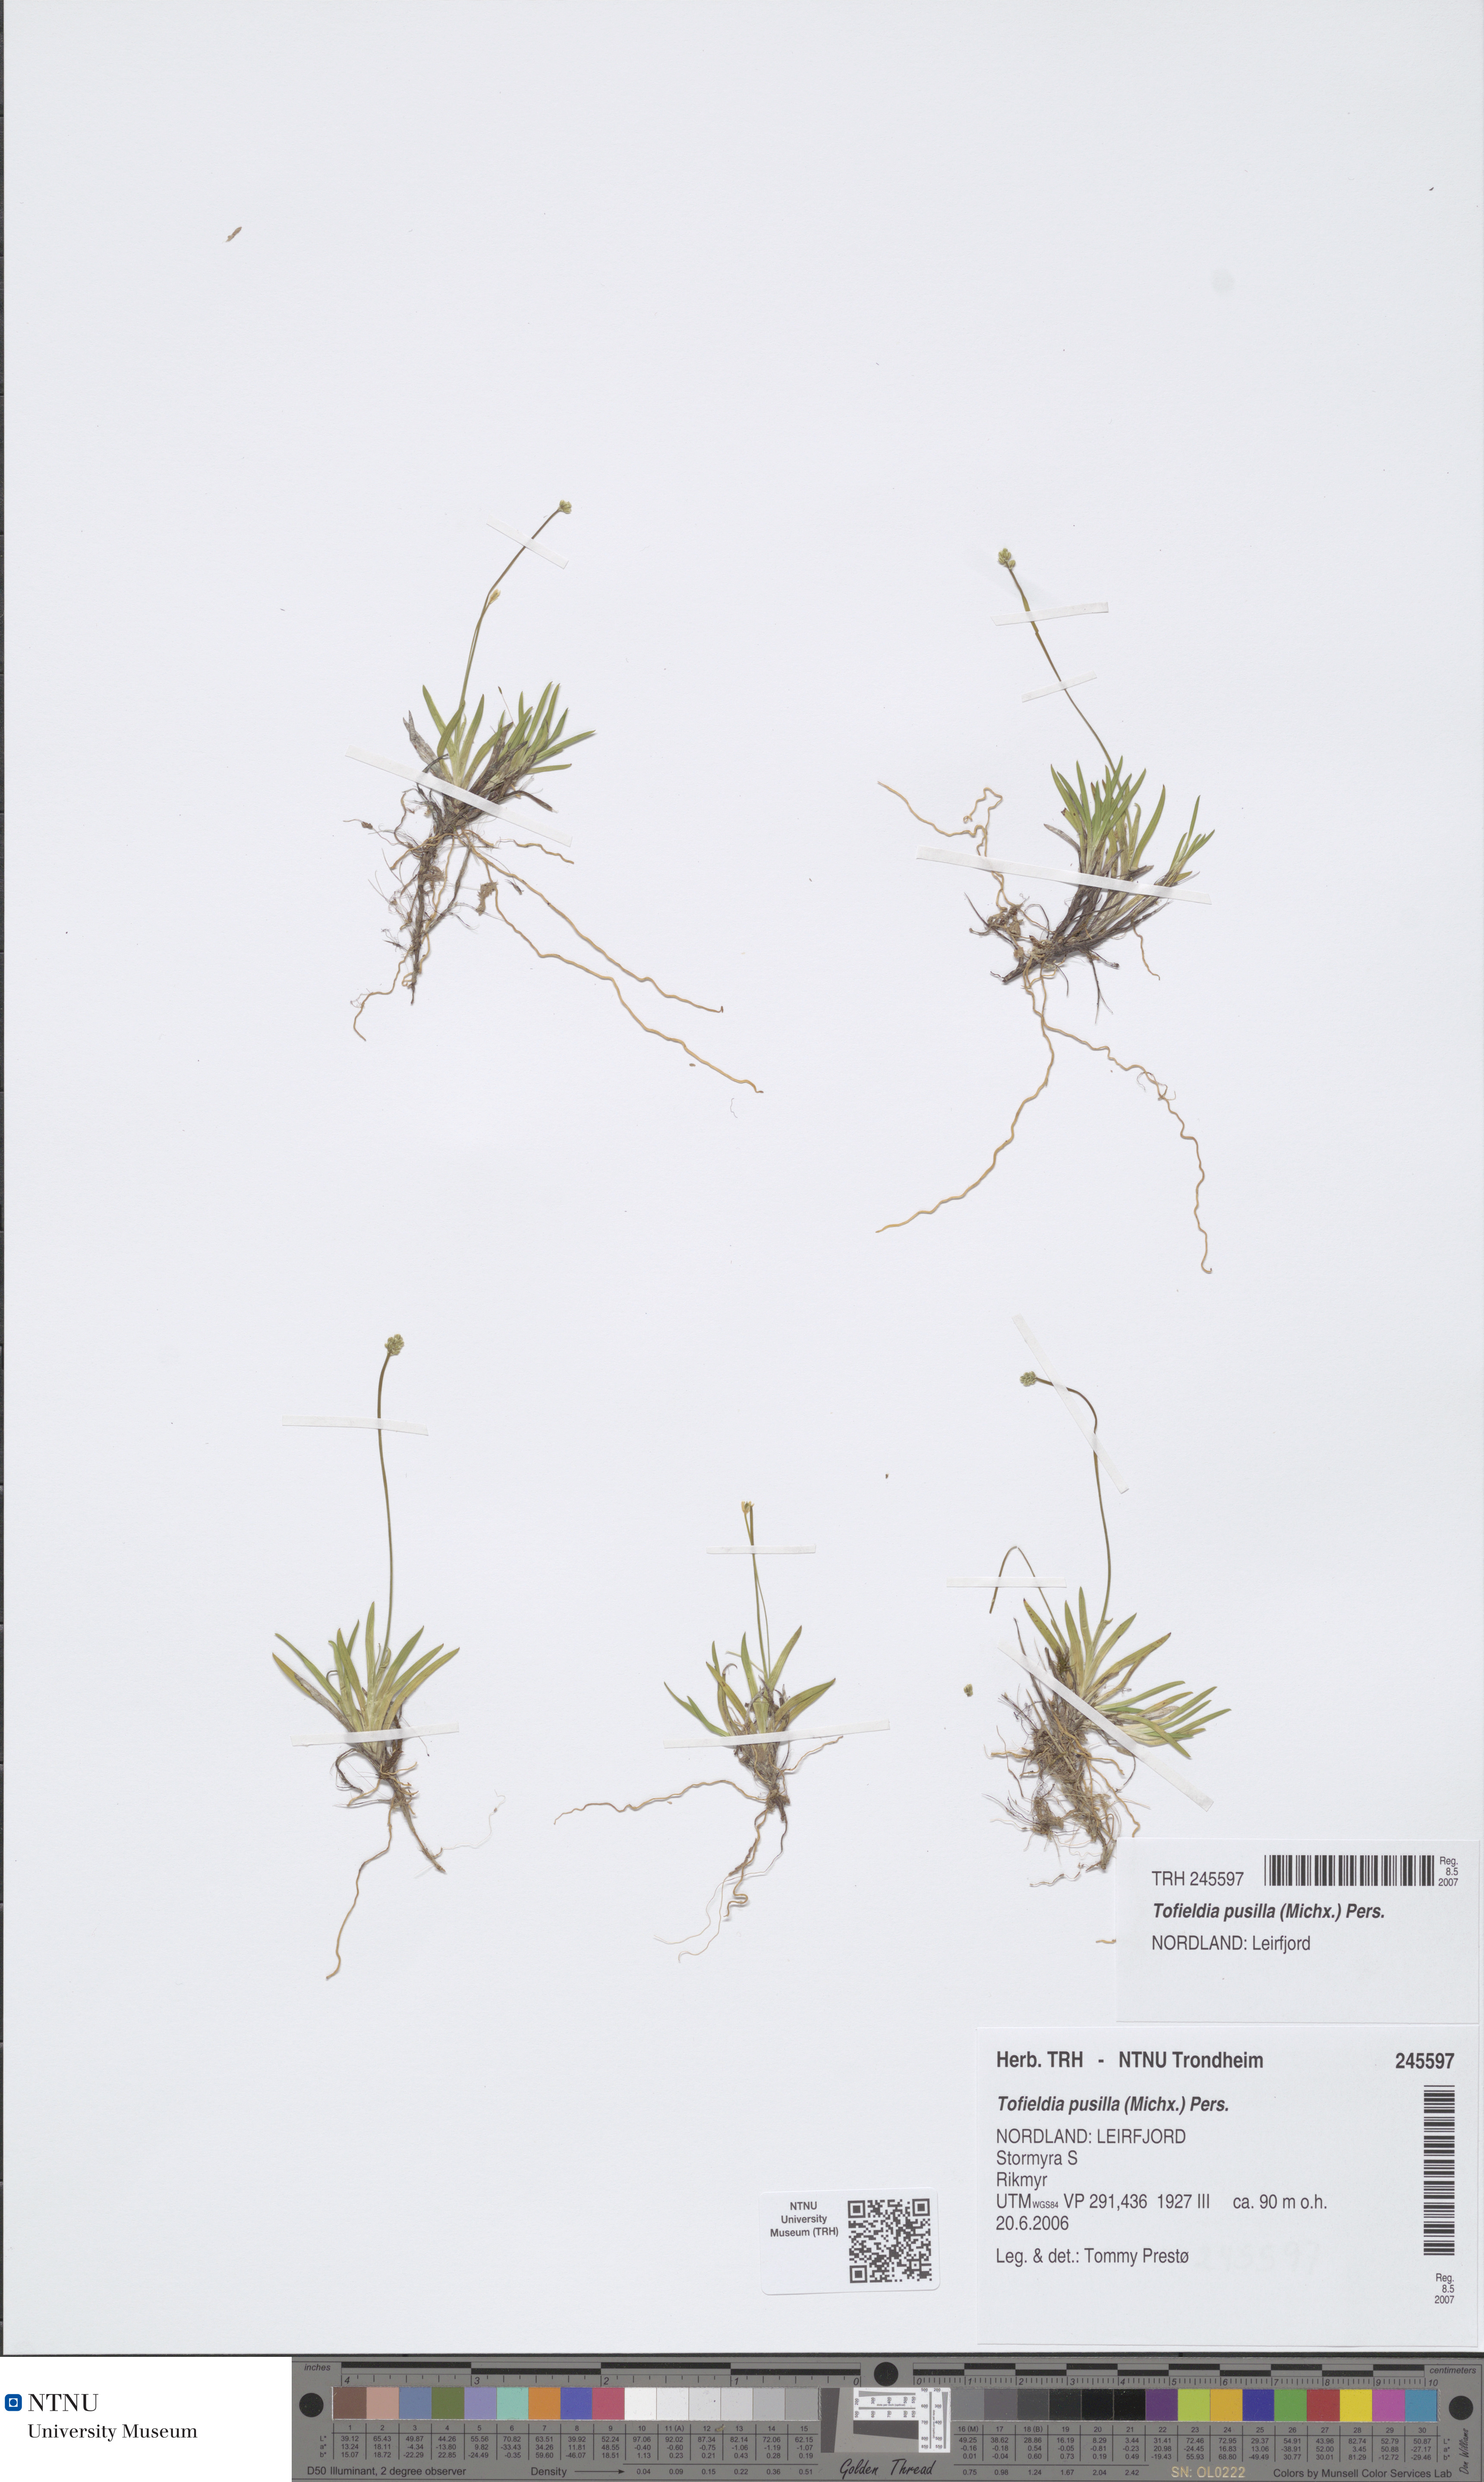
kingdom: Plantae
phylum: Tracheophyta
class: Liliopsida
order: Alismatales
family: Tofieldiaceae
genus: Tofieldia
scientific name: Tofieldia pusilla
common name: Scottish false asphodel
